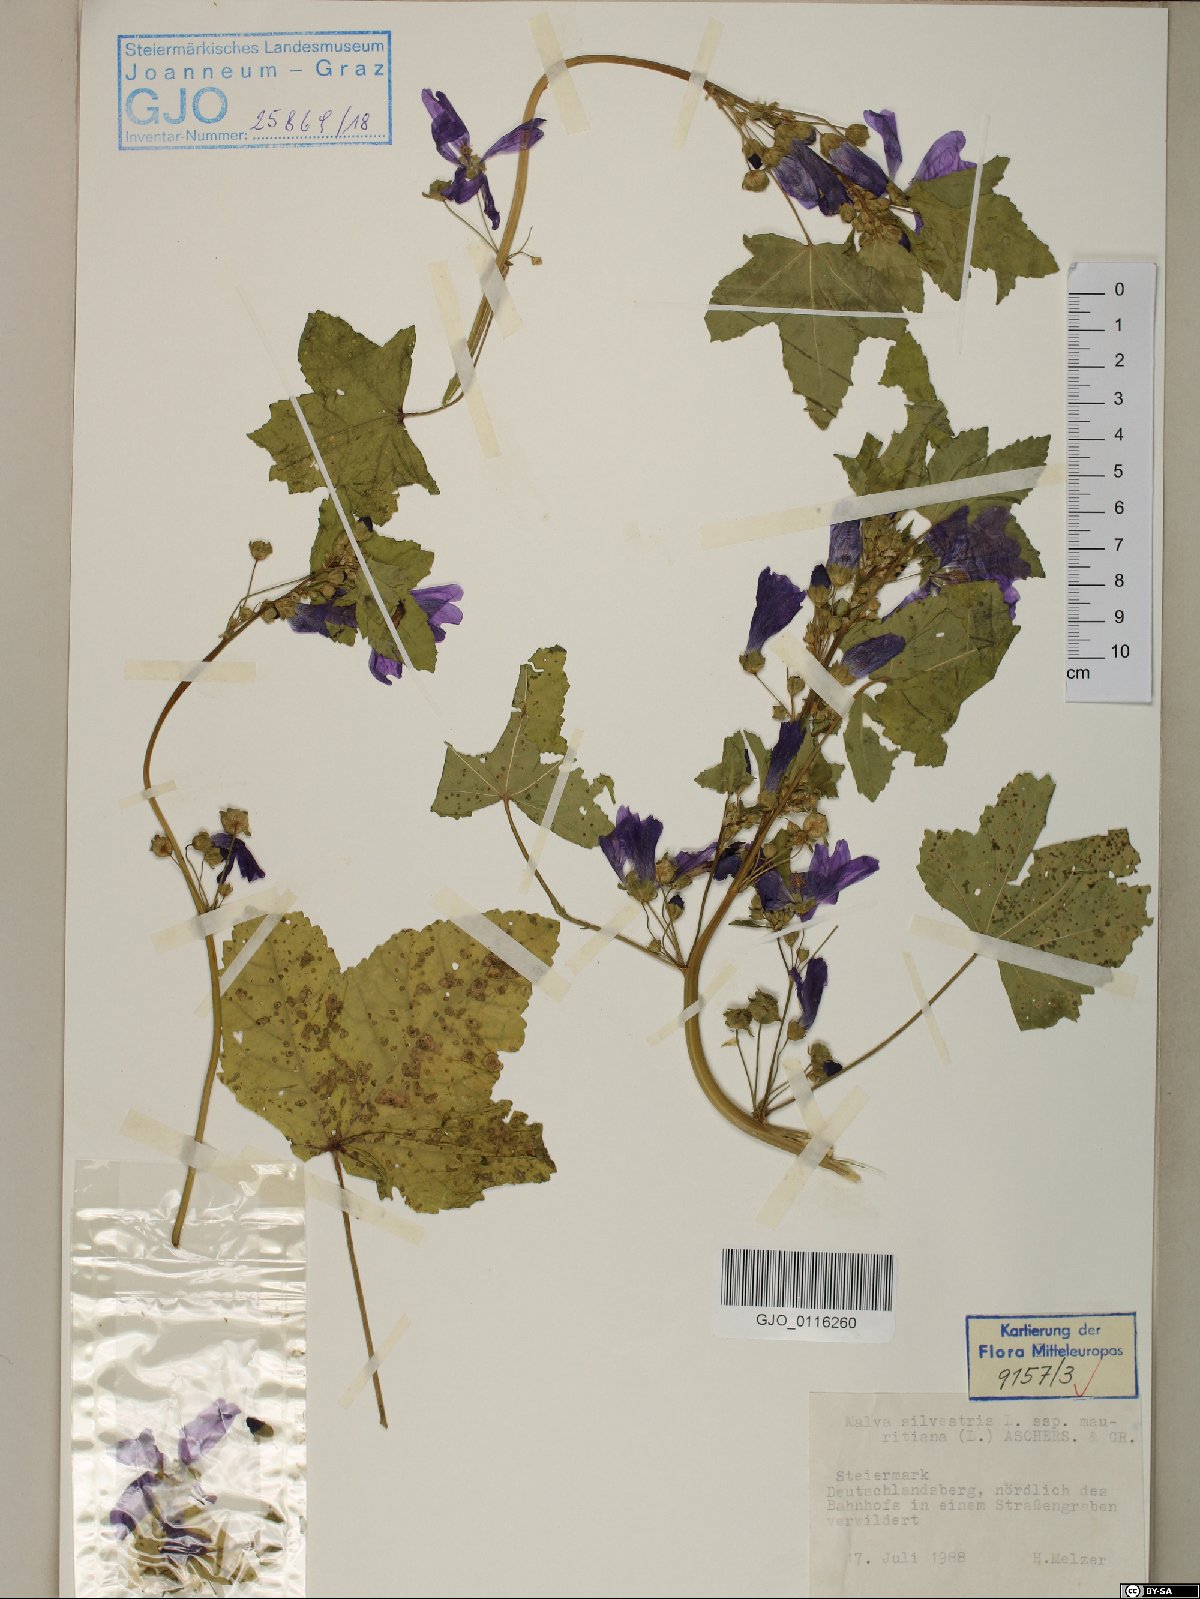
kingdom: Plantae
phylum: Tracheophyta
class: Magnoliopsida
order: Malvales
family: Malvaceae
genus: Malva
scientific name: Malva sylvestris
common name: Common mallow
